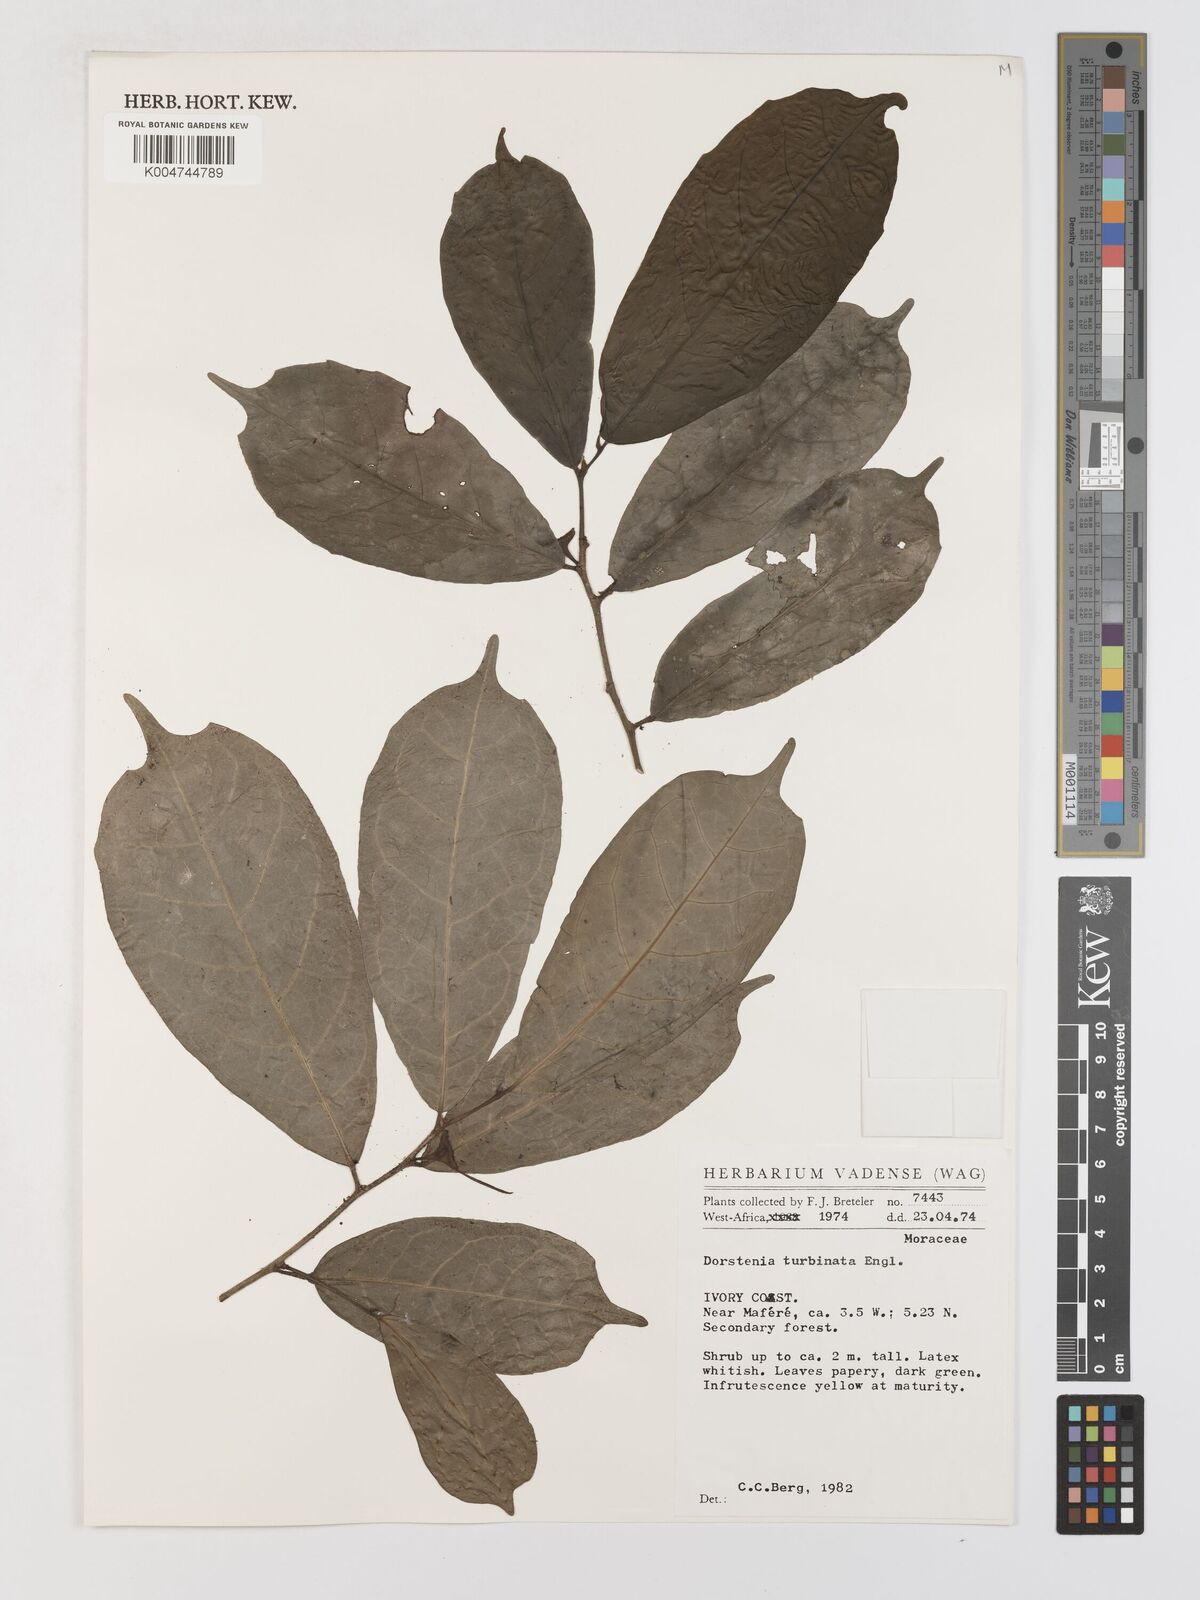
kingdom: Plantae
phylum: Tracheophyta
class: Magnoliopsida
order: Rosales
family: Moraceae
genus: Hijmania
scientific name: Hijmania turbinata
